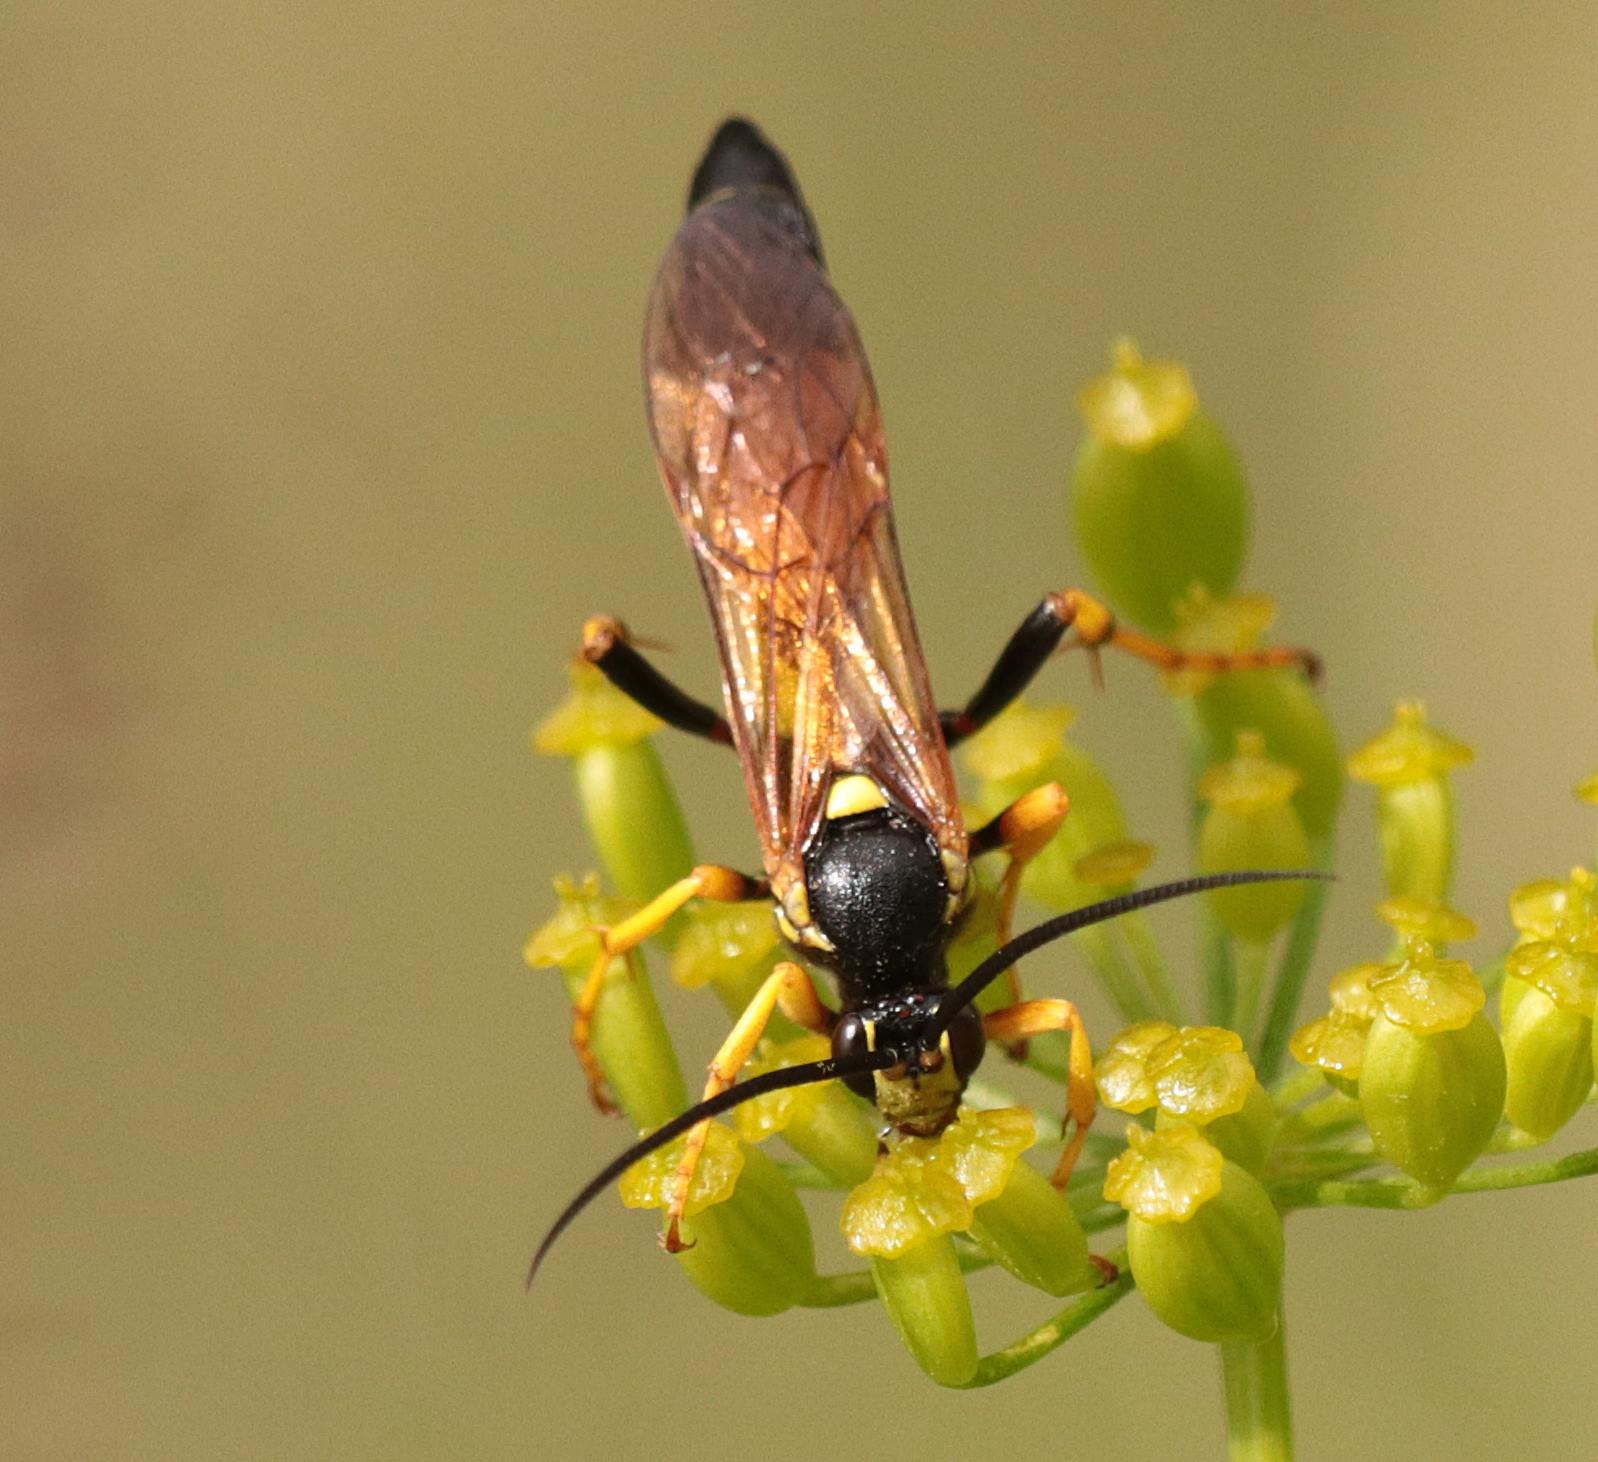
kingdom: Animalia
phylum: Arthropoda
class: Insecta
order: Hymenoptera
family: Ichneumonidae
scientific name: Ichneumonidae
